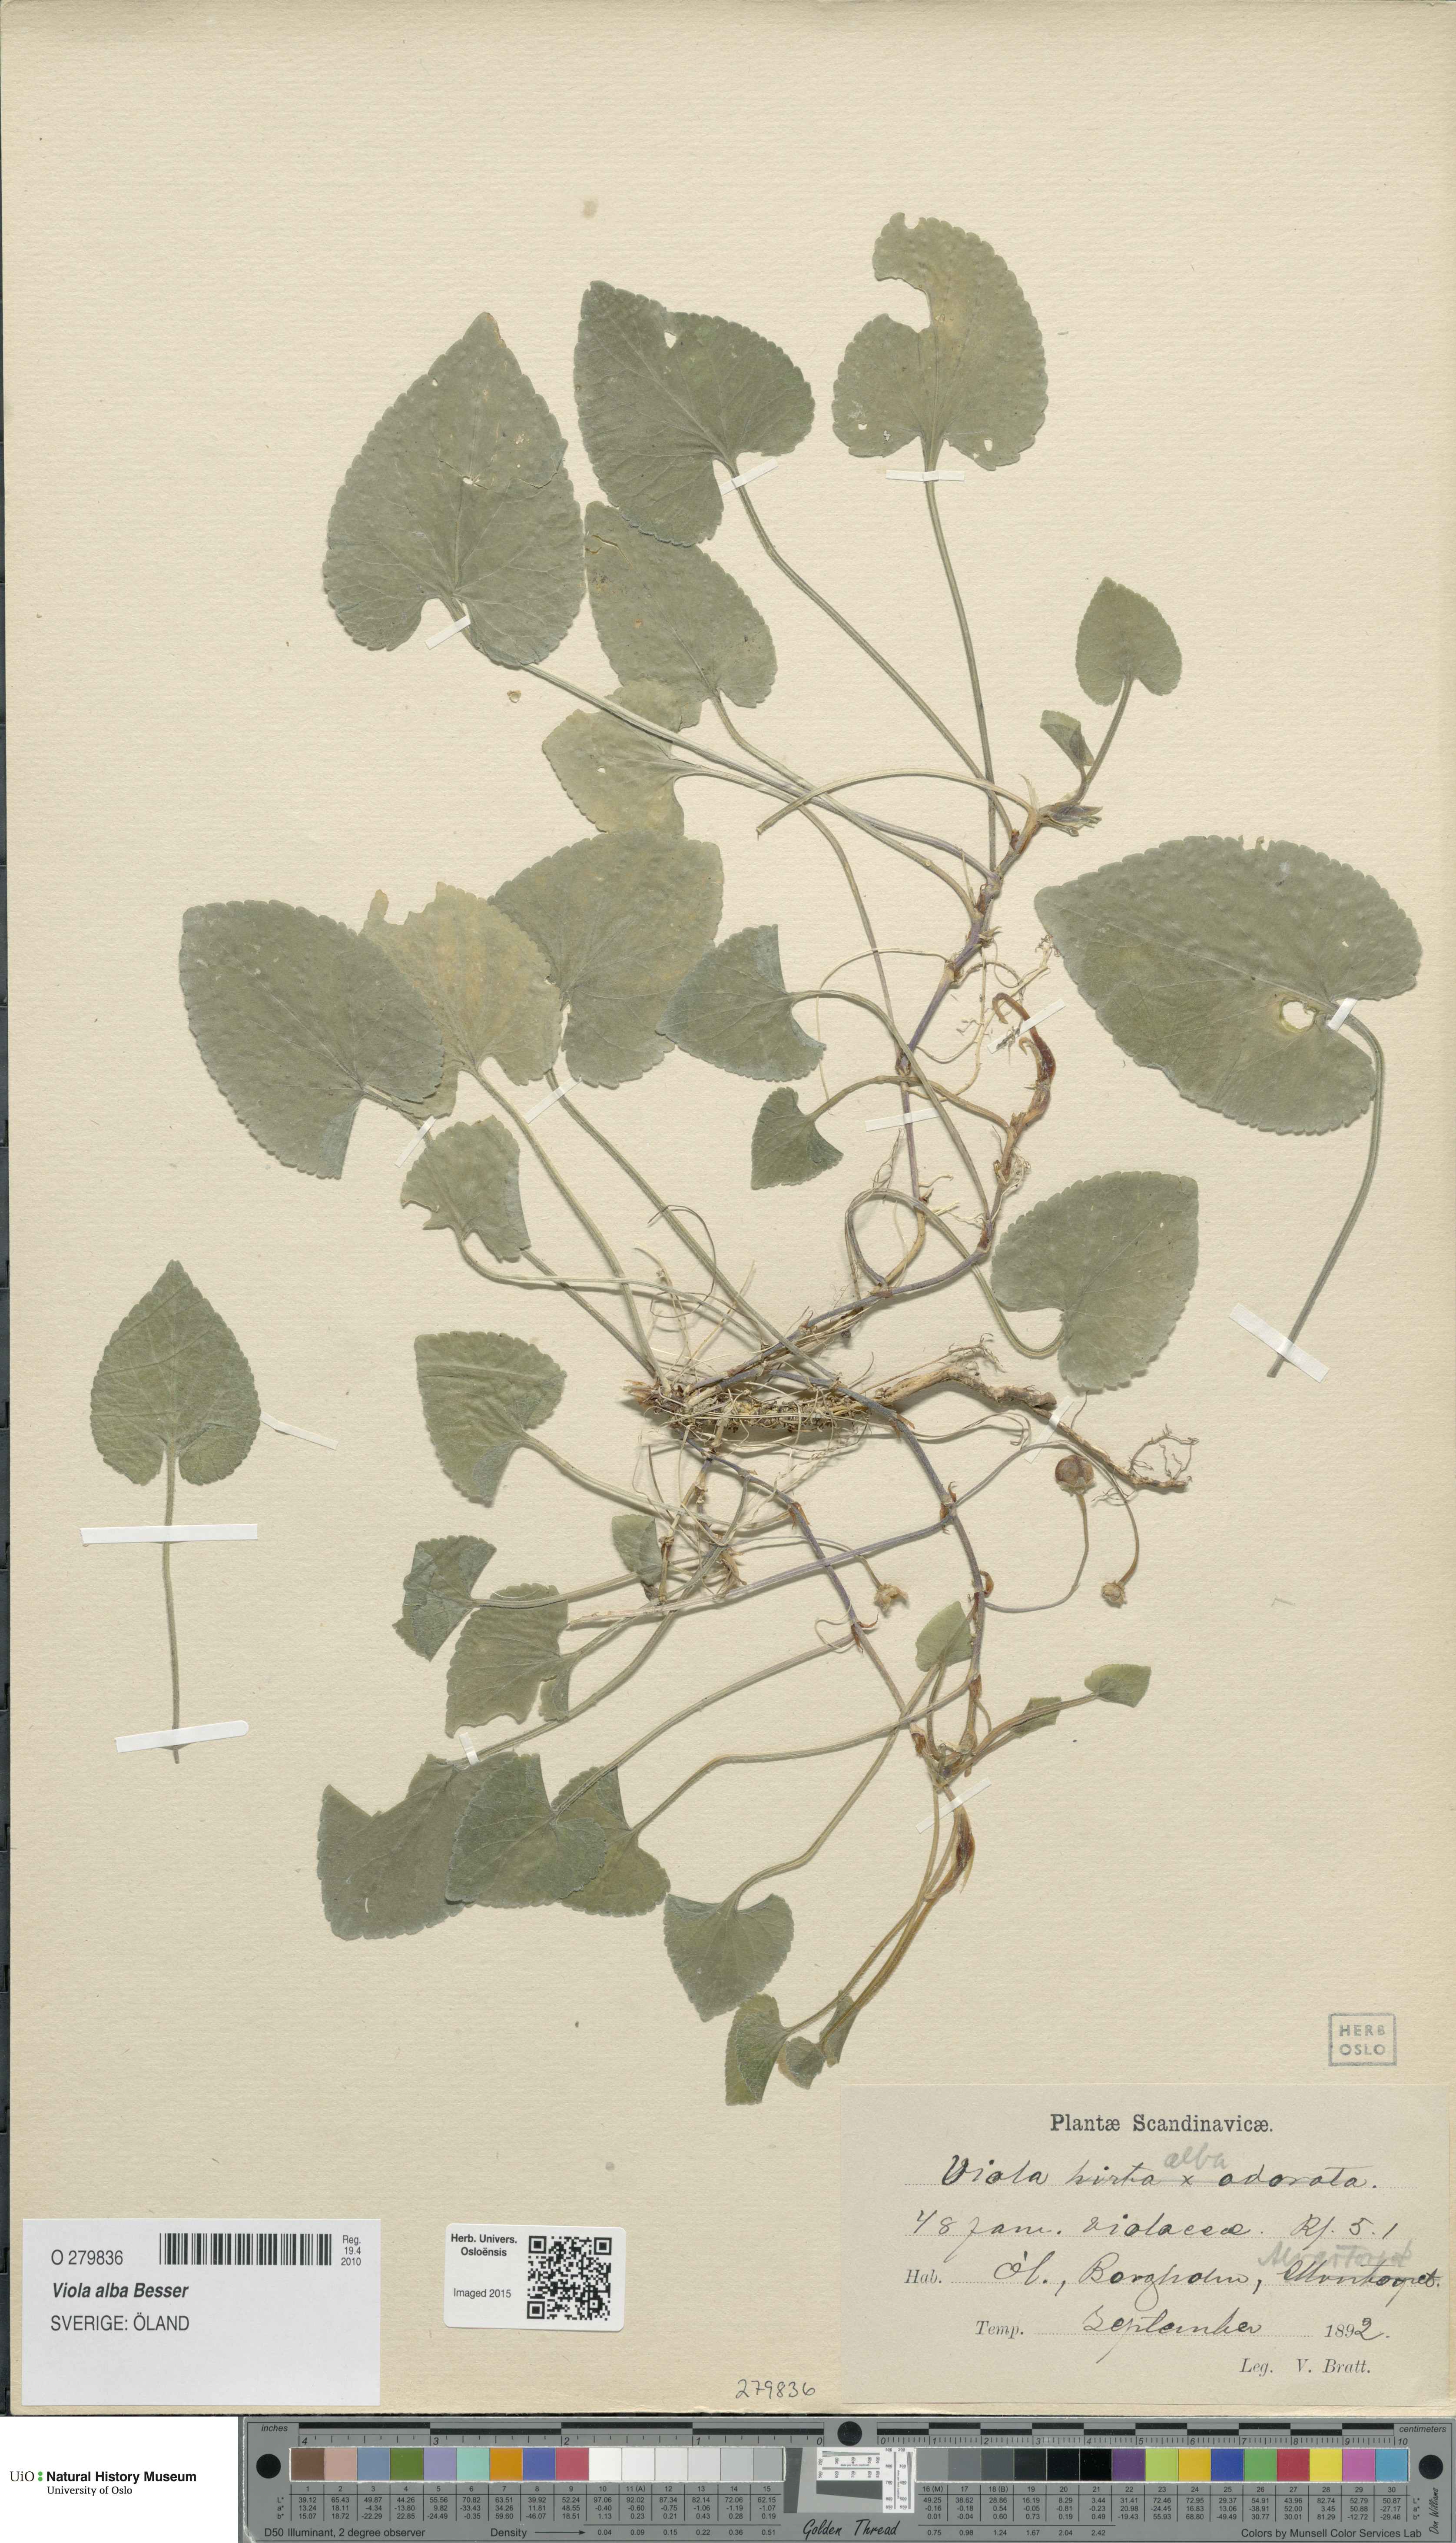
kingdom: Plantae
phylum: Tracheophyta
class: Magnoliopsida
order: Malpighiales
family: Violaceae
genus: Viola
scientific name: Viola alba
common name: White violet
